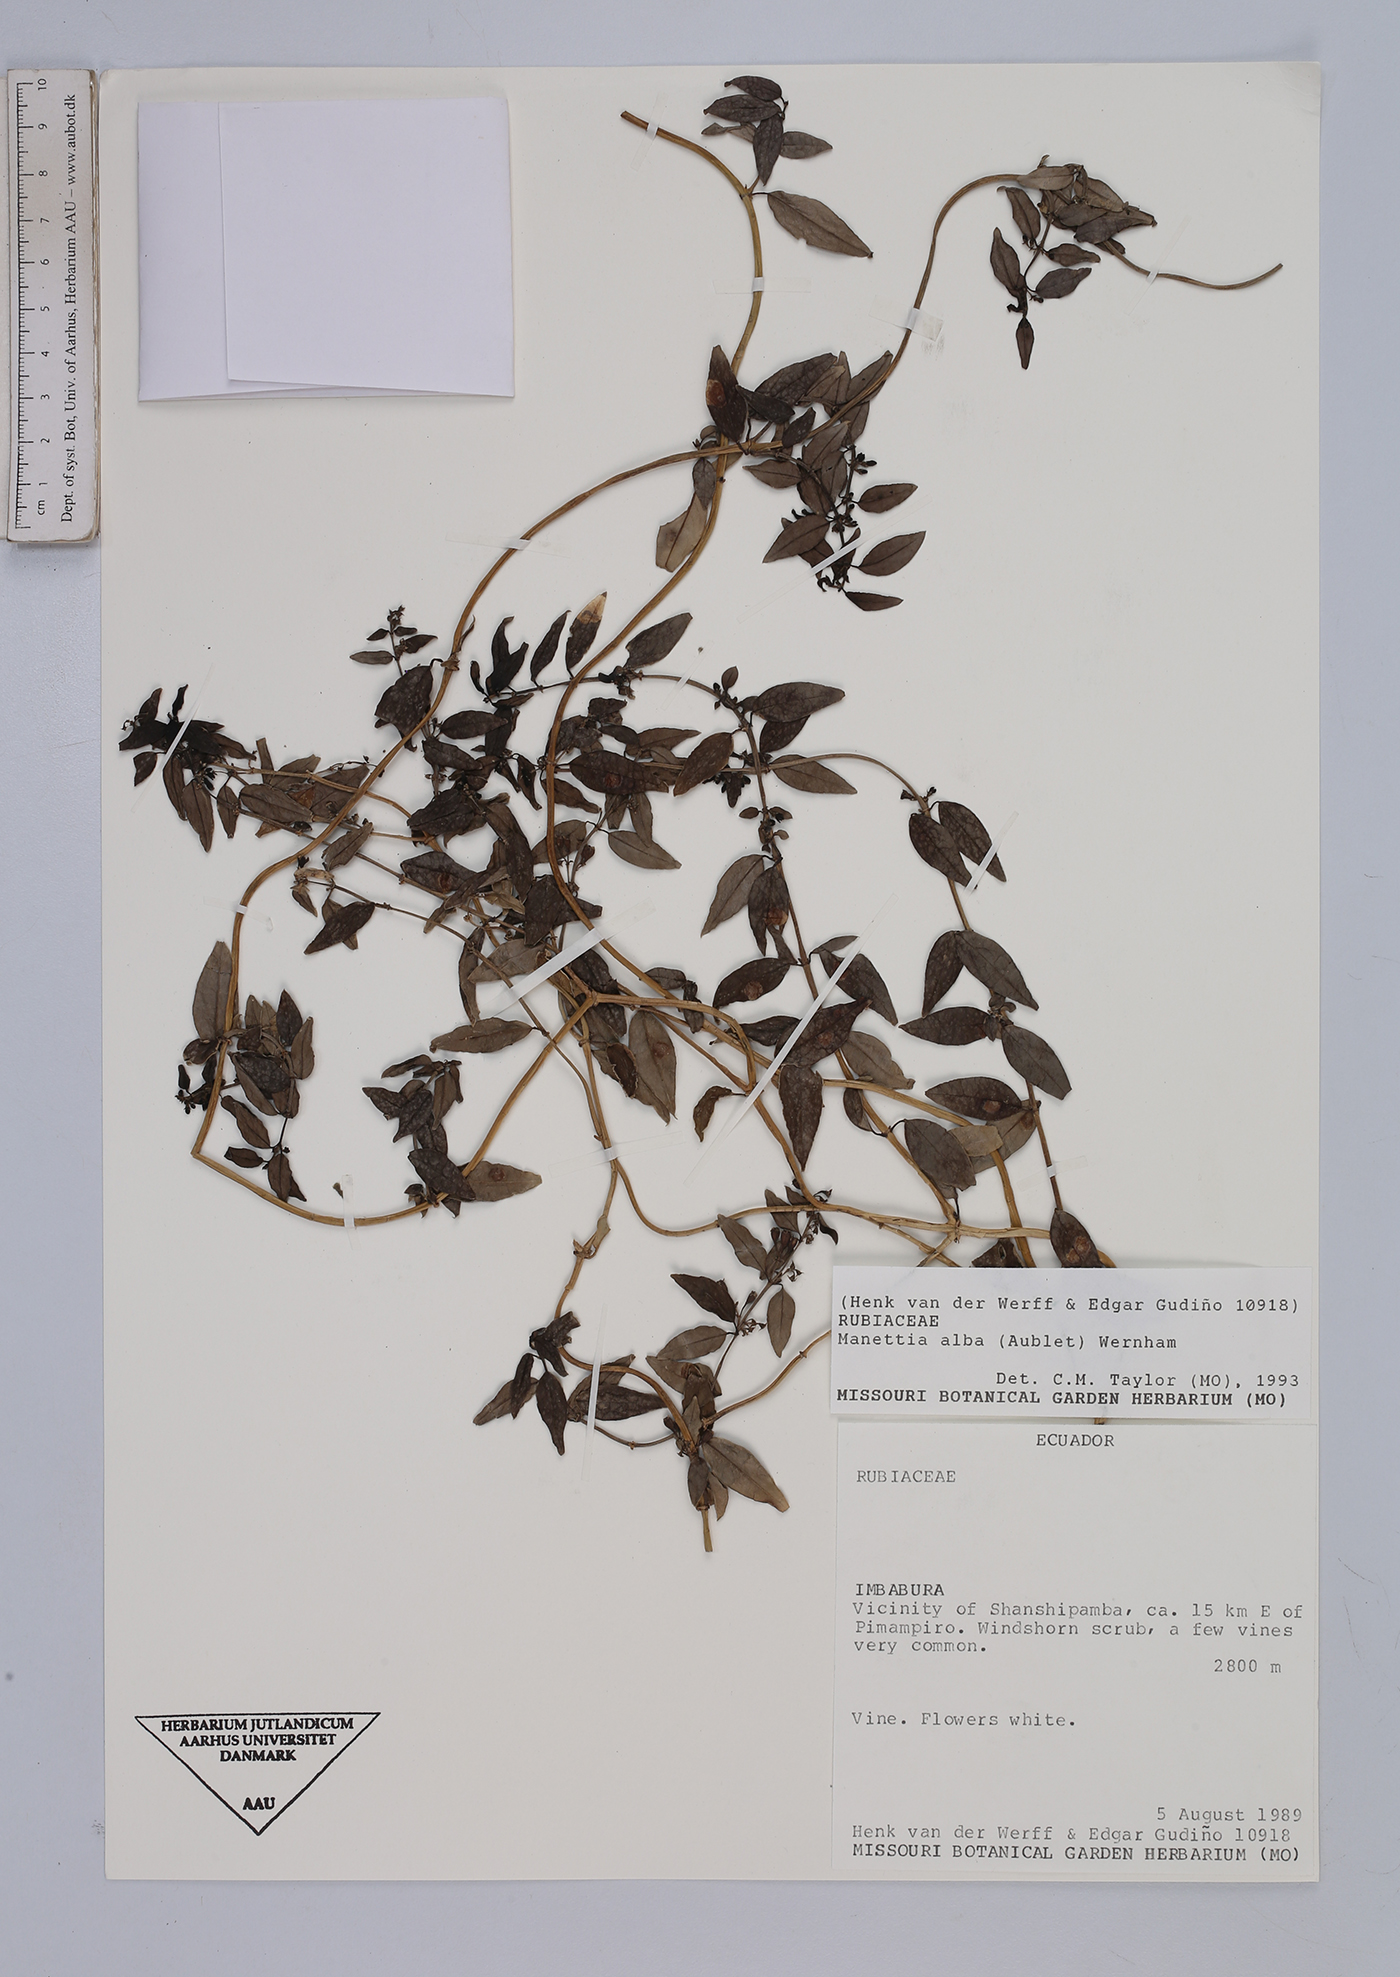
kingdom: Plantae
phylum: Tracheophyta
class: Magnoliopsida
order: Gentianales
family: Rubiaceae
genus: Manettia
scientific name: Manettia alba
